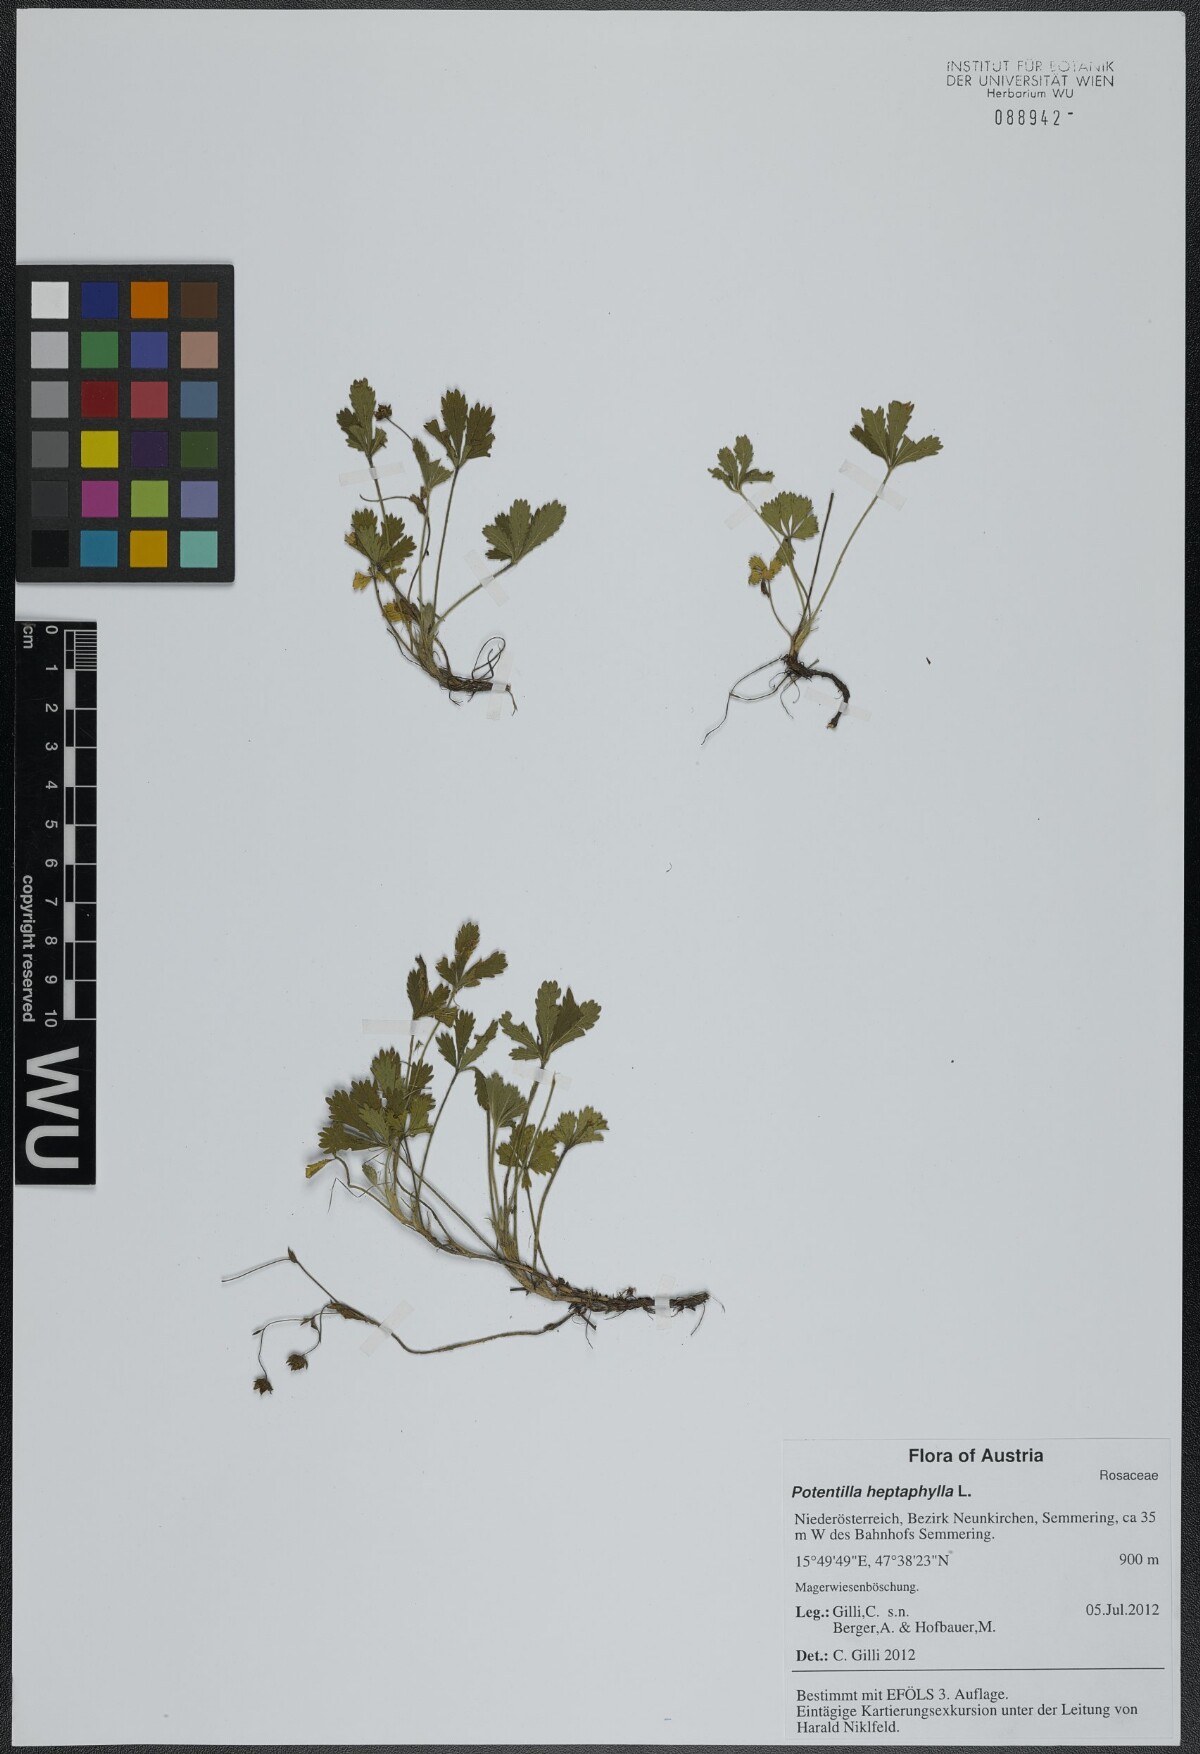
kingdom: Plantae
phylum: Tracheophyta
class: Magnoliopsida
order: Rosales
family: Rosaceae
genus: Potentilla
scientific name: Potentilla heptaphylla
